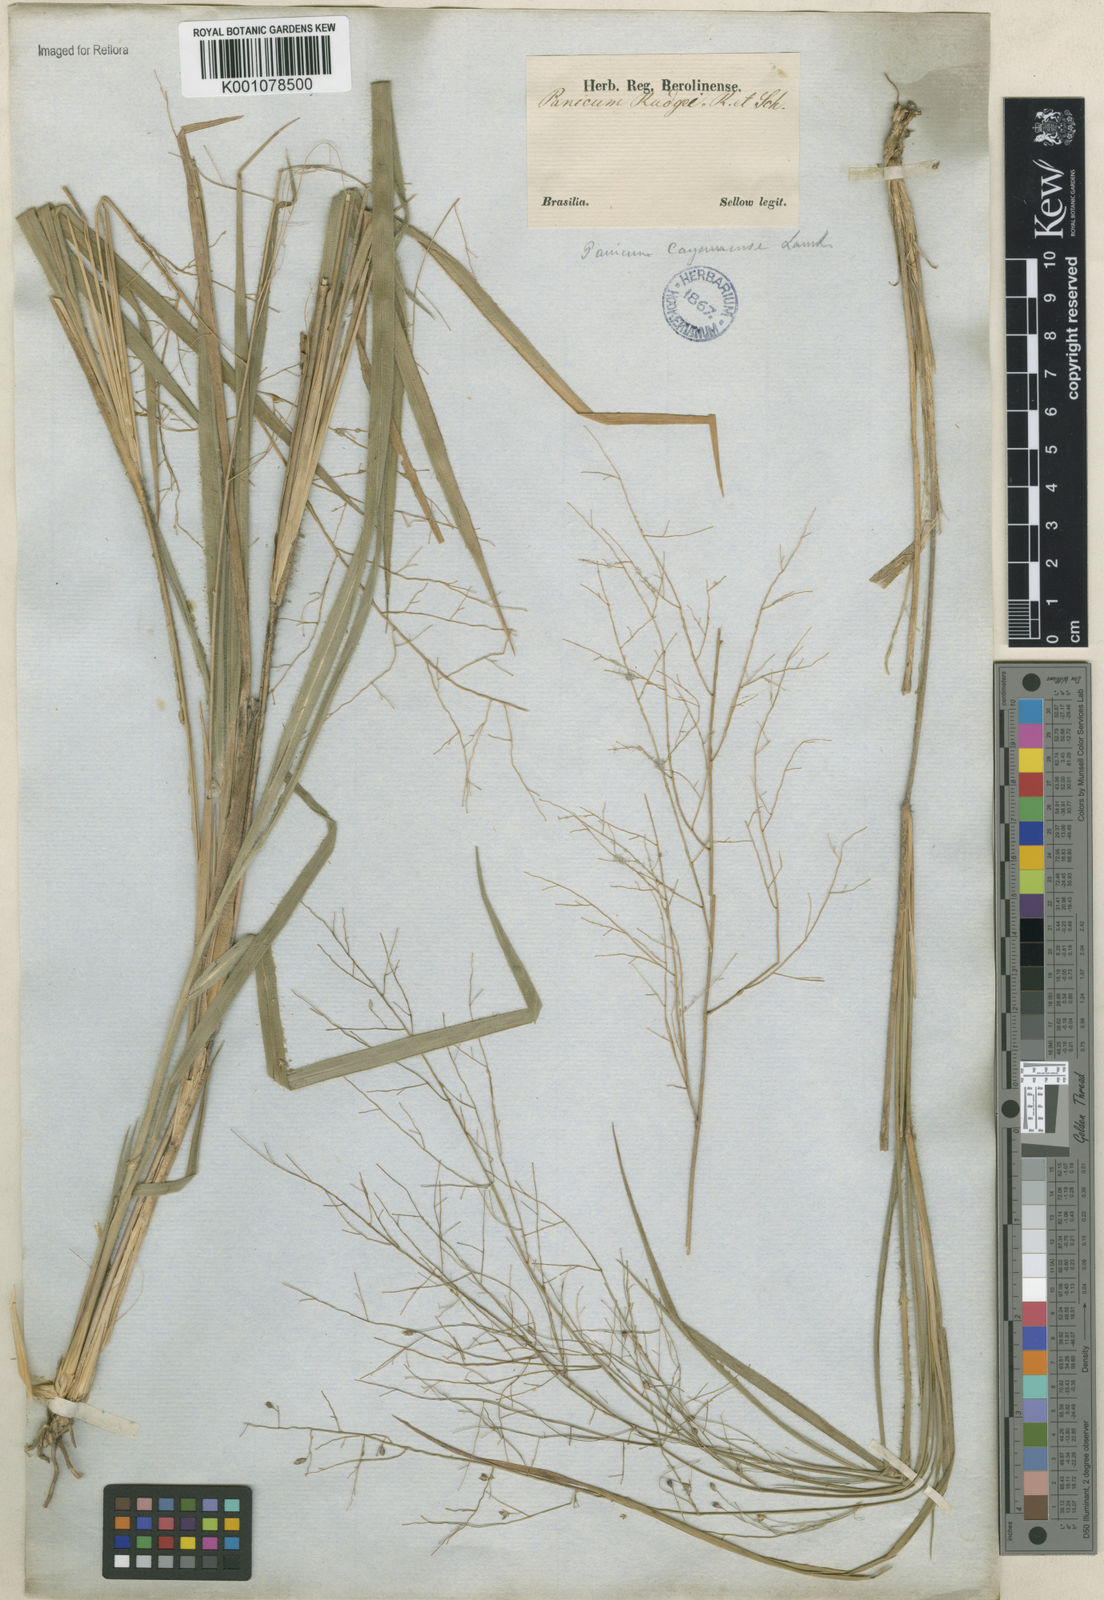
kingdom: Plantae
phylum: Tracheophyta
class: Liliopsida
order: Poales
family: Poaceae
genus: Panicum
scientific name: Panicum rudgei
